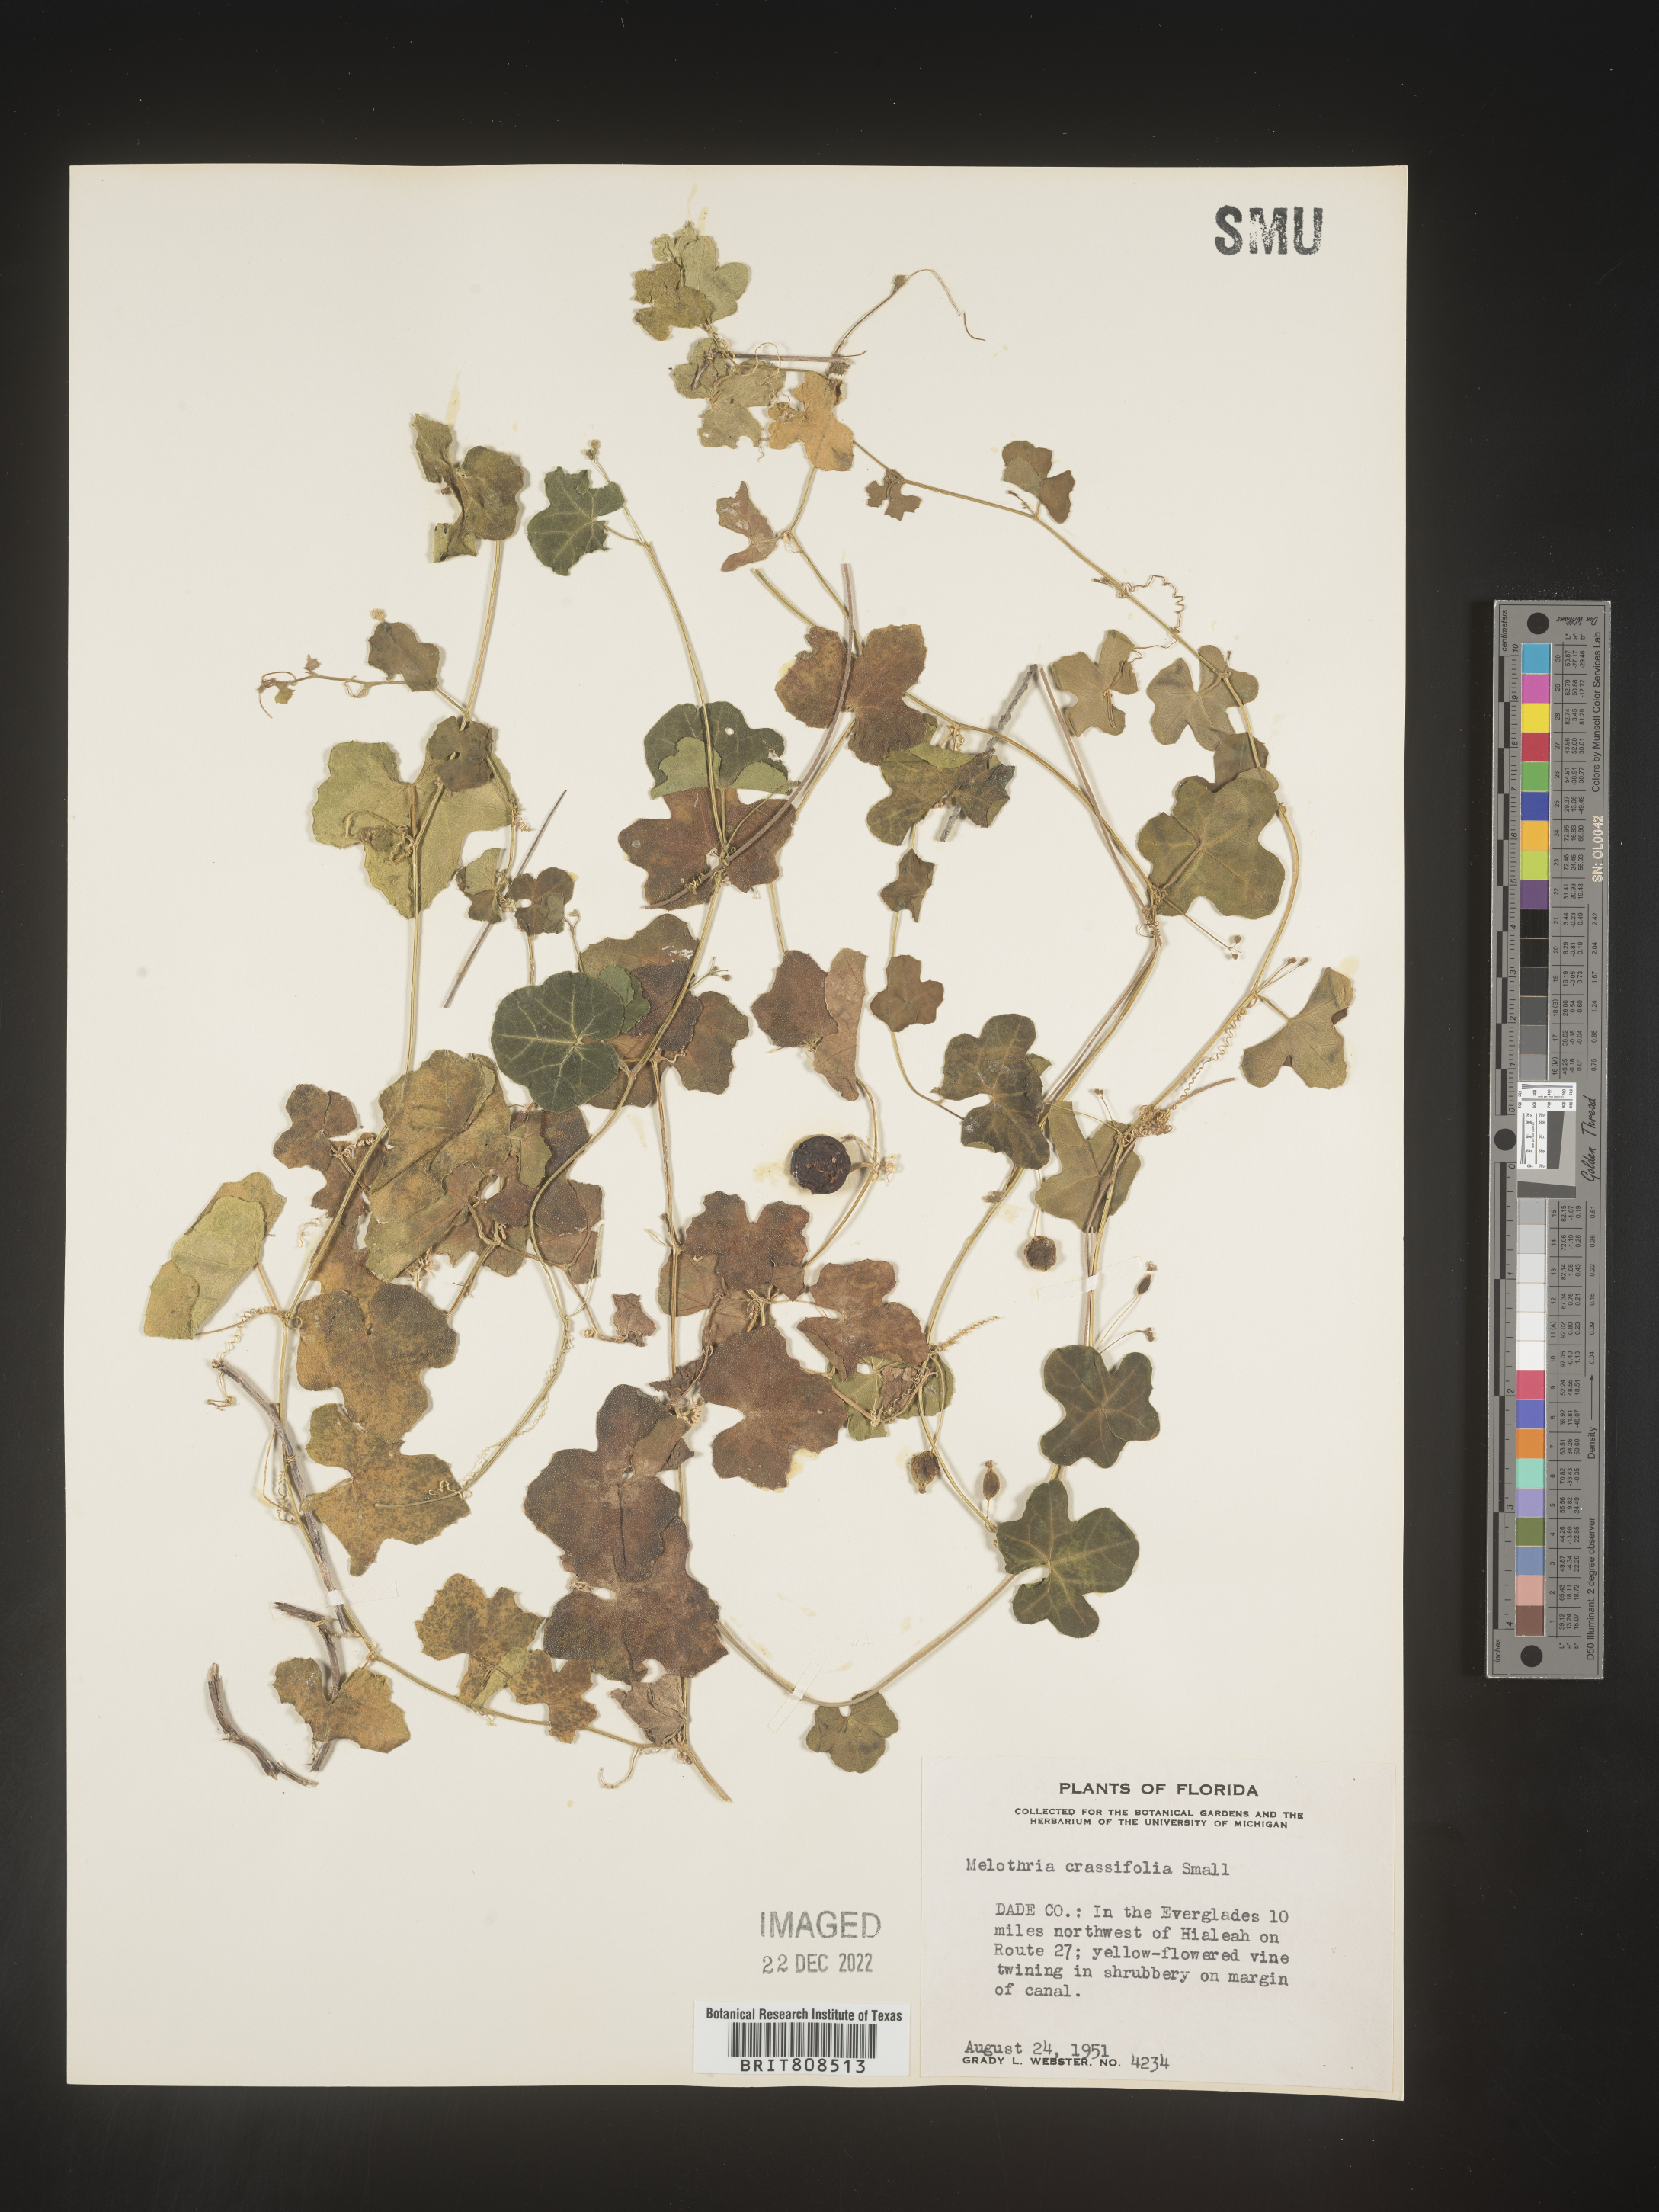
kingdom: Plantae
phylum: Tracheophyta
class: Magnoliopsida
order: Cucurbitales
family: Cucurbitaceae
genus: Melothria
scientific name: Melothria
